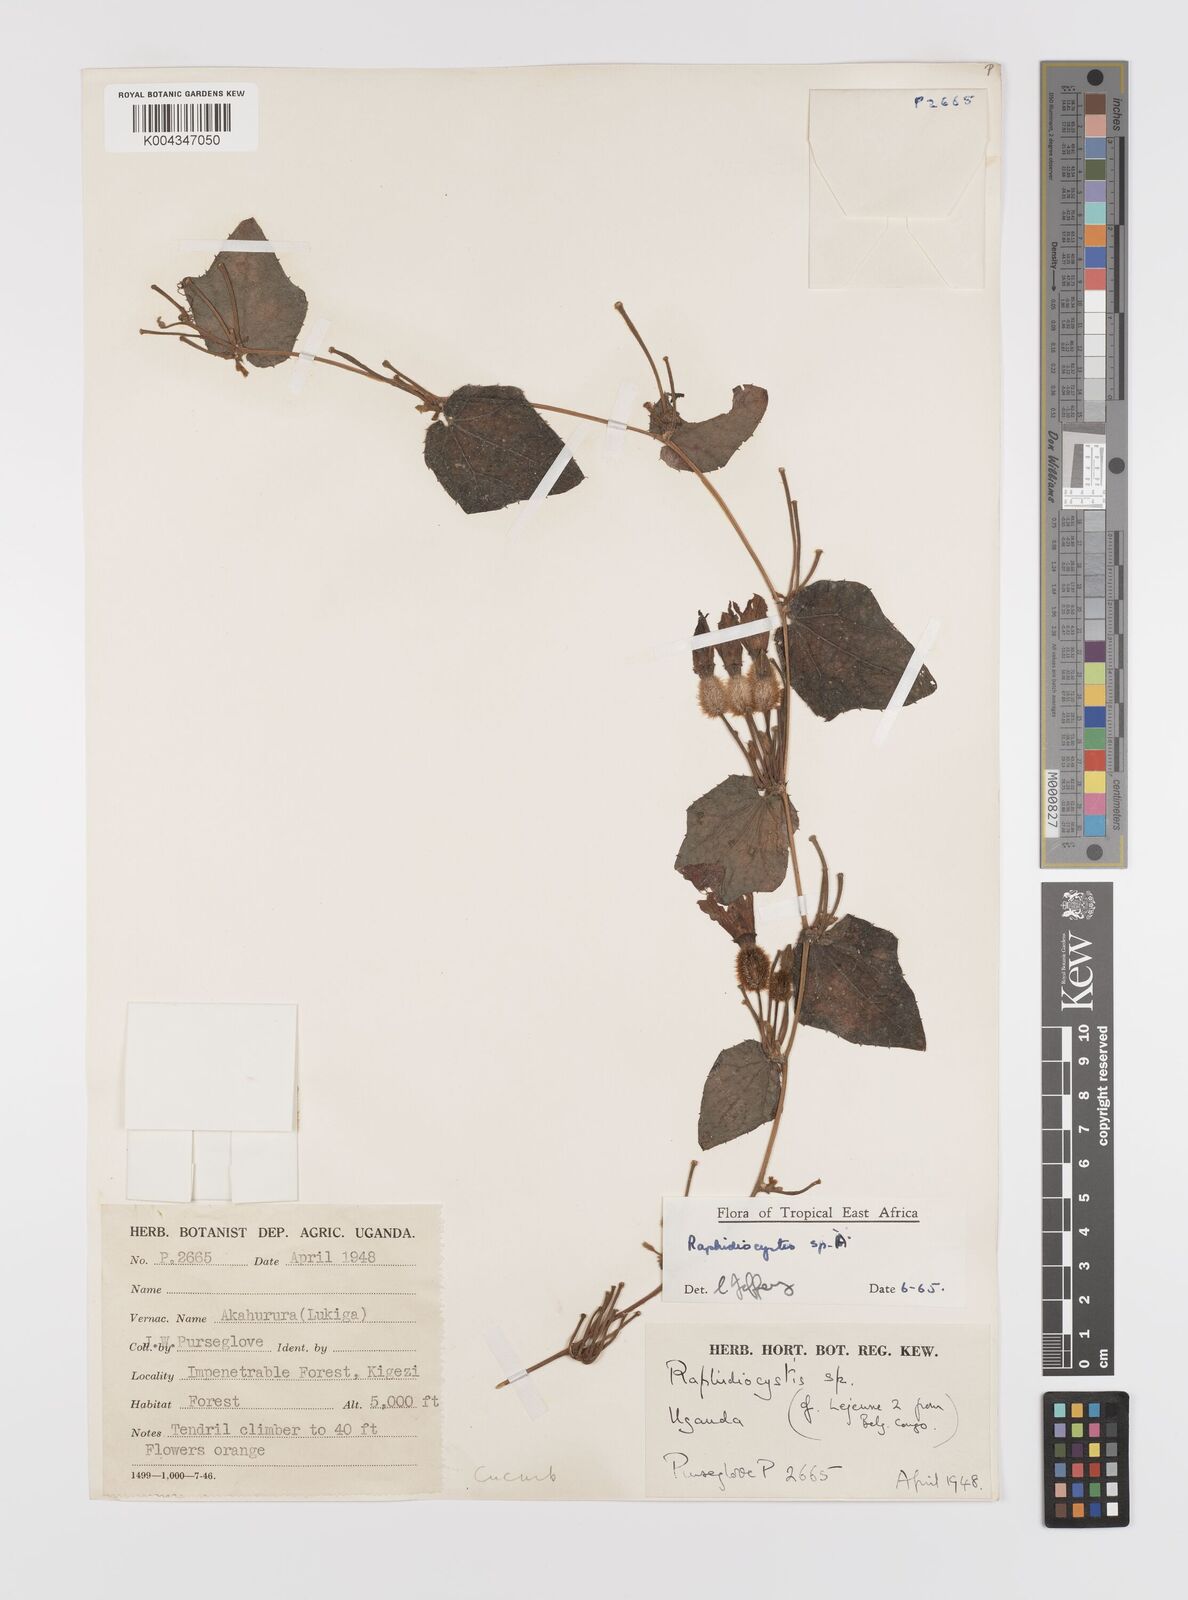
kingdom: Plantae
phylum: Tracheophyta
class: Magnoliopsida
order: Cucurbitales
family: Cucurbitaceae
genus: Raphidiocystis
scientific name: Raphidiocystis chrysocoma
